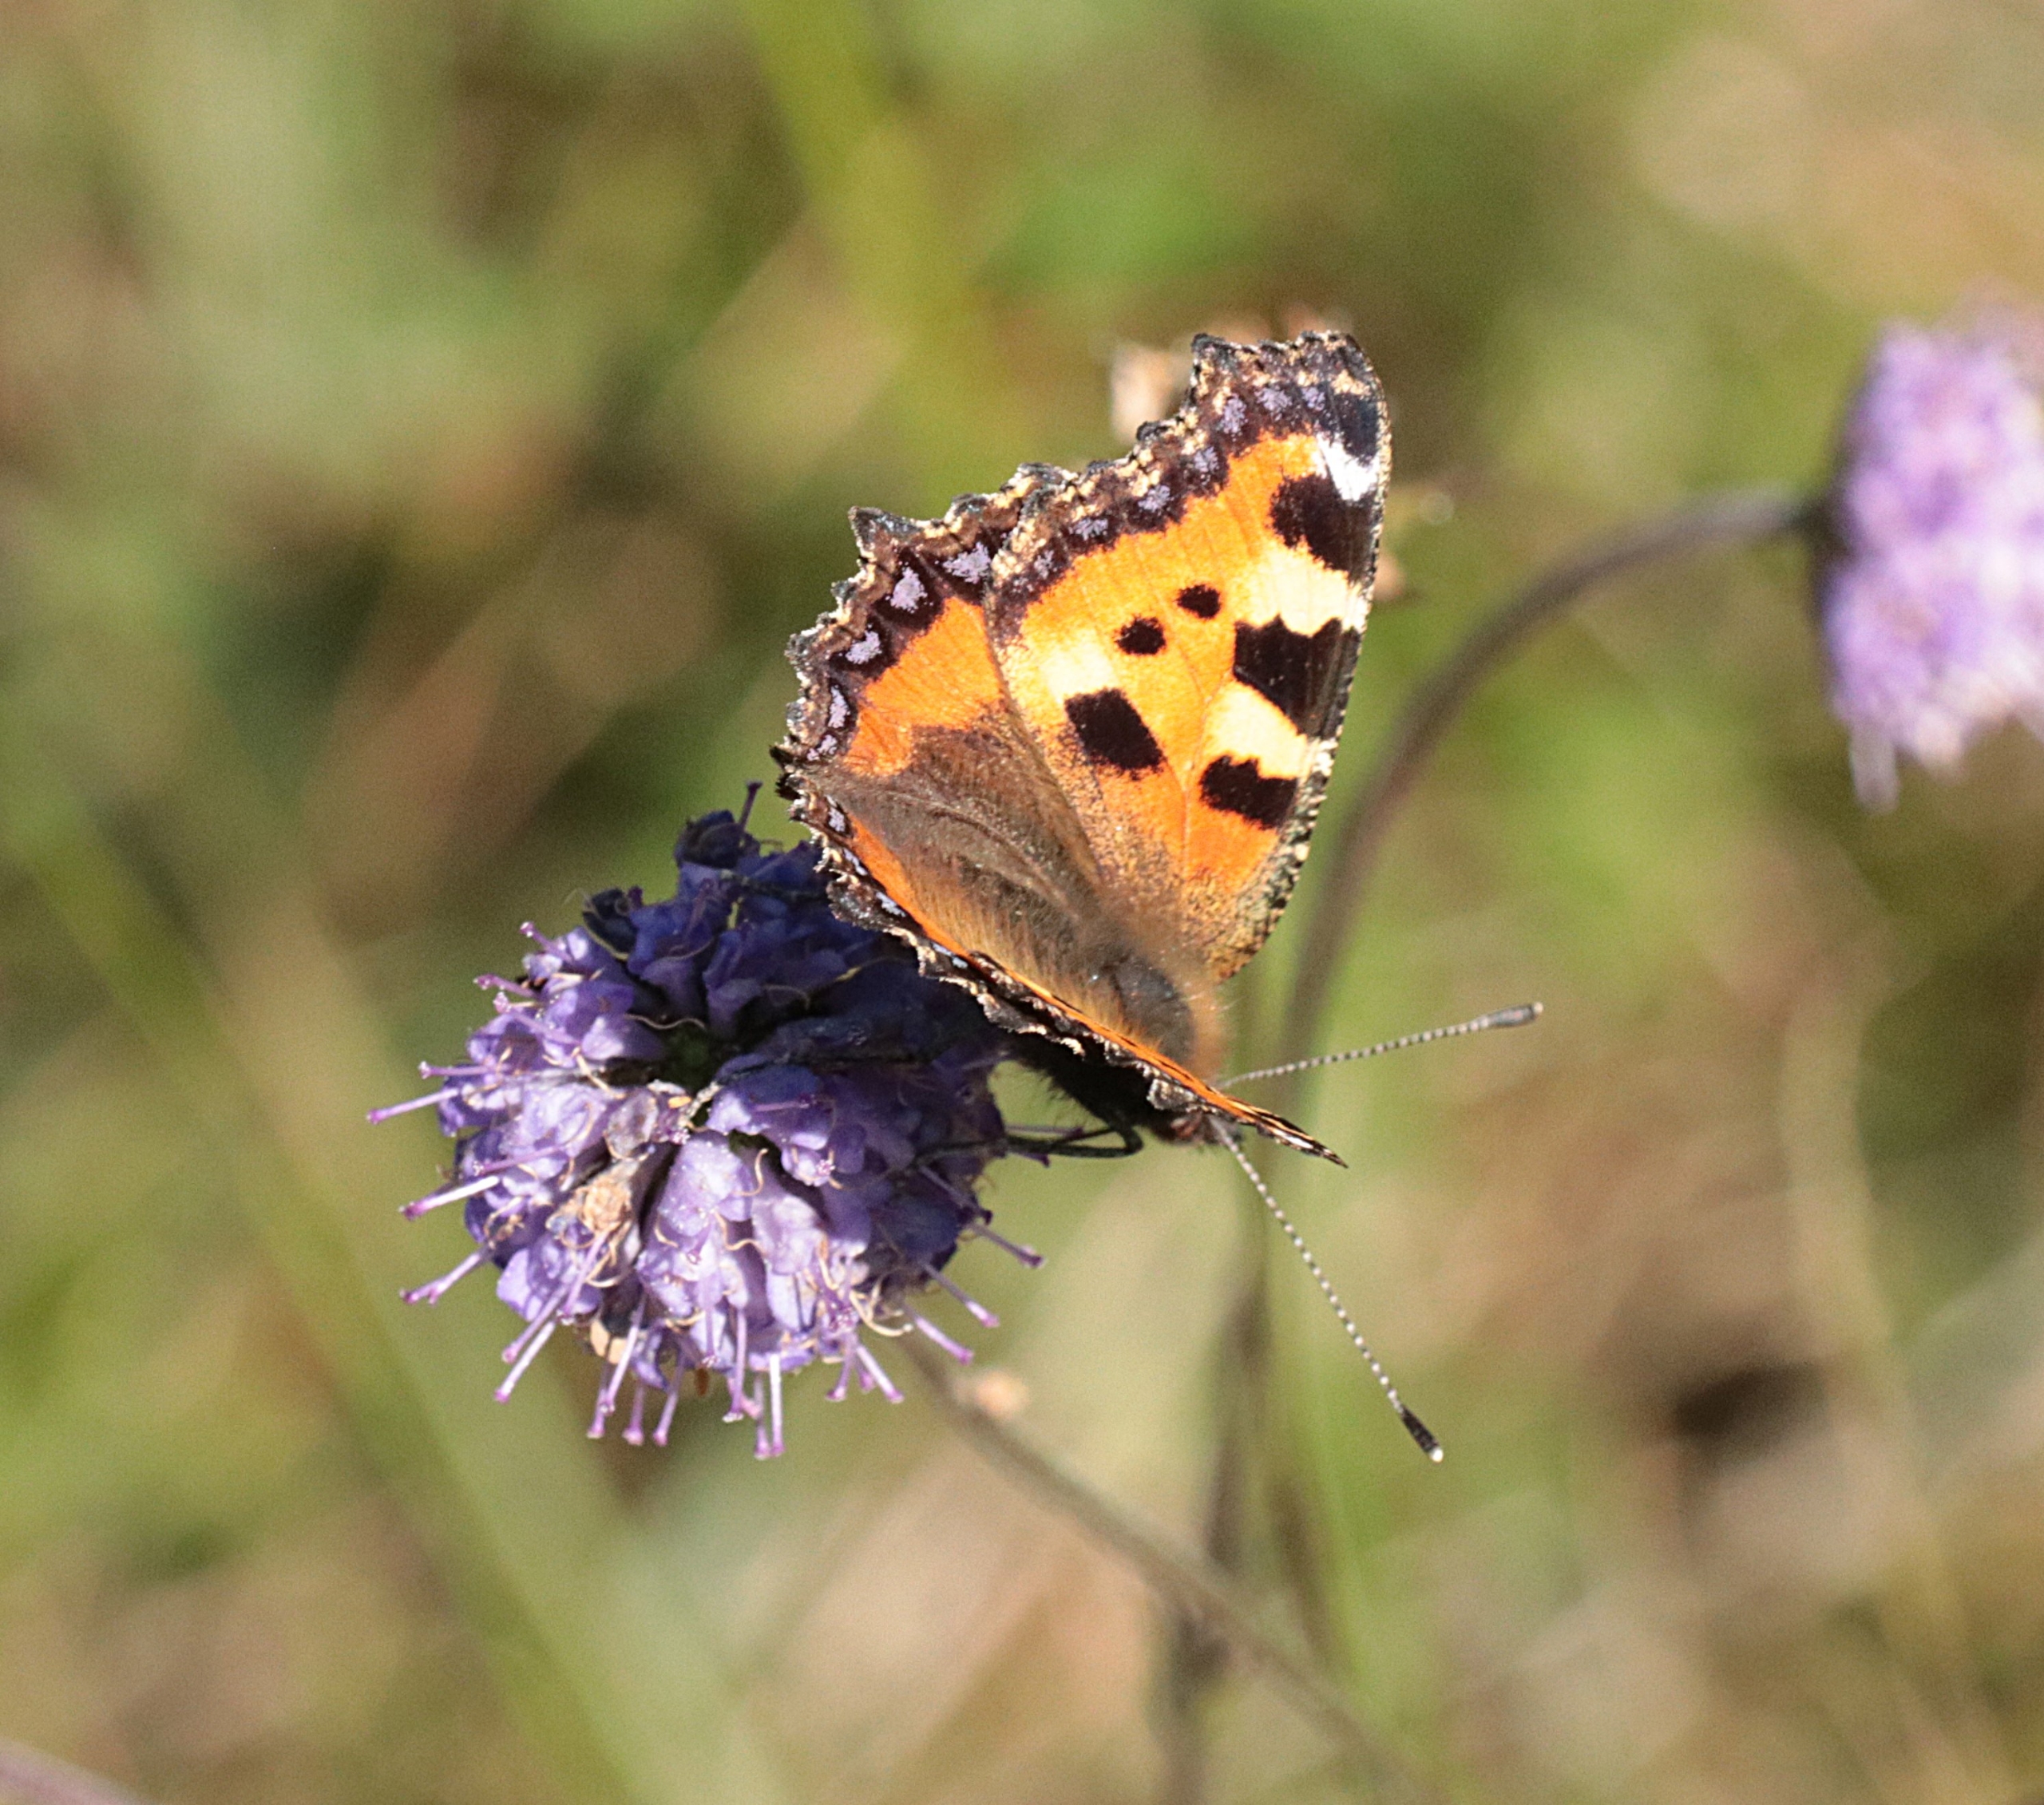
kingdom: Animalia
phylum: Arthropoda
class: Insecta
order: Lepidoptera
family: Nymphalidae
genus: Aglais
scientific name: Aglais urticae
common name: Nældens takvinge
